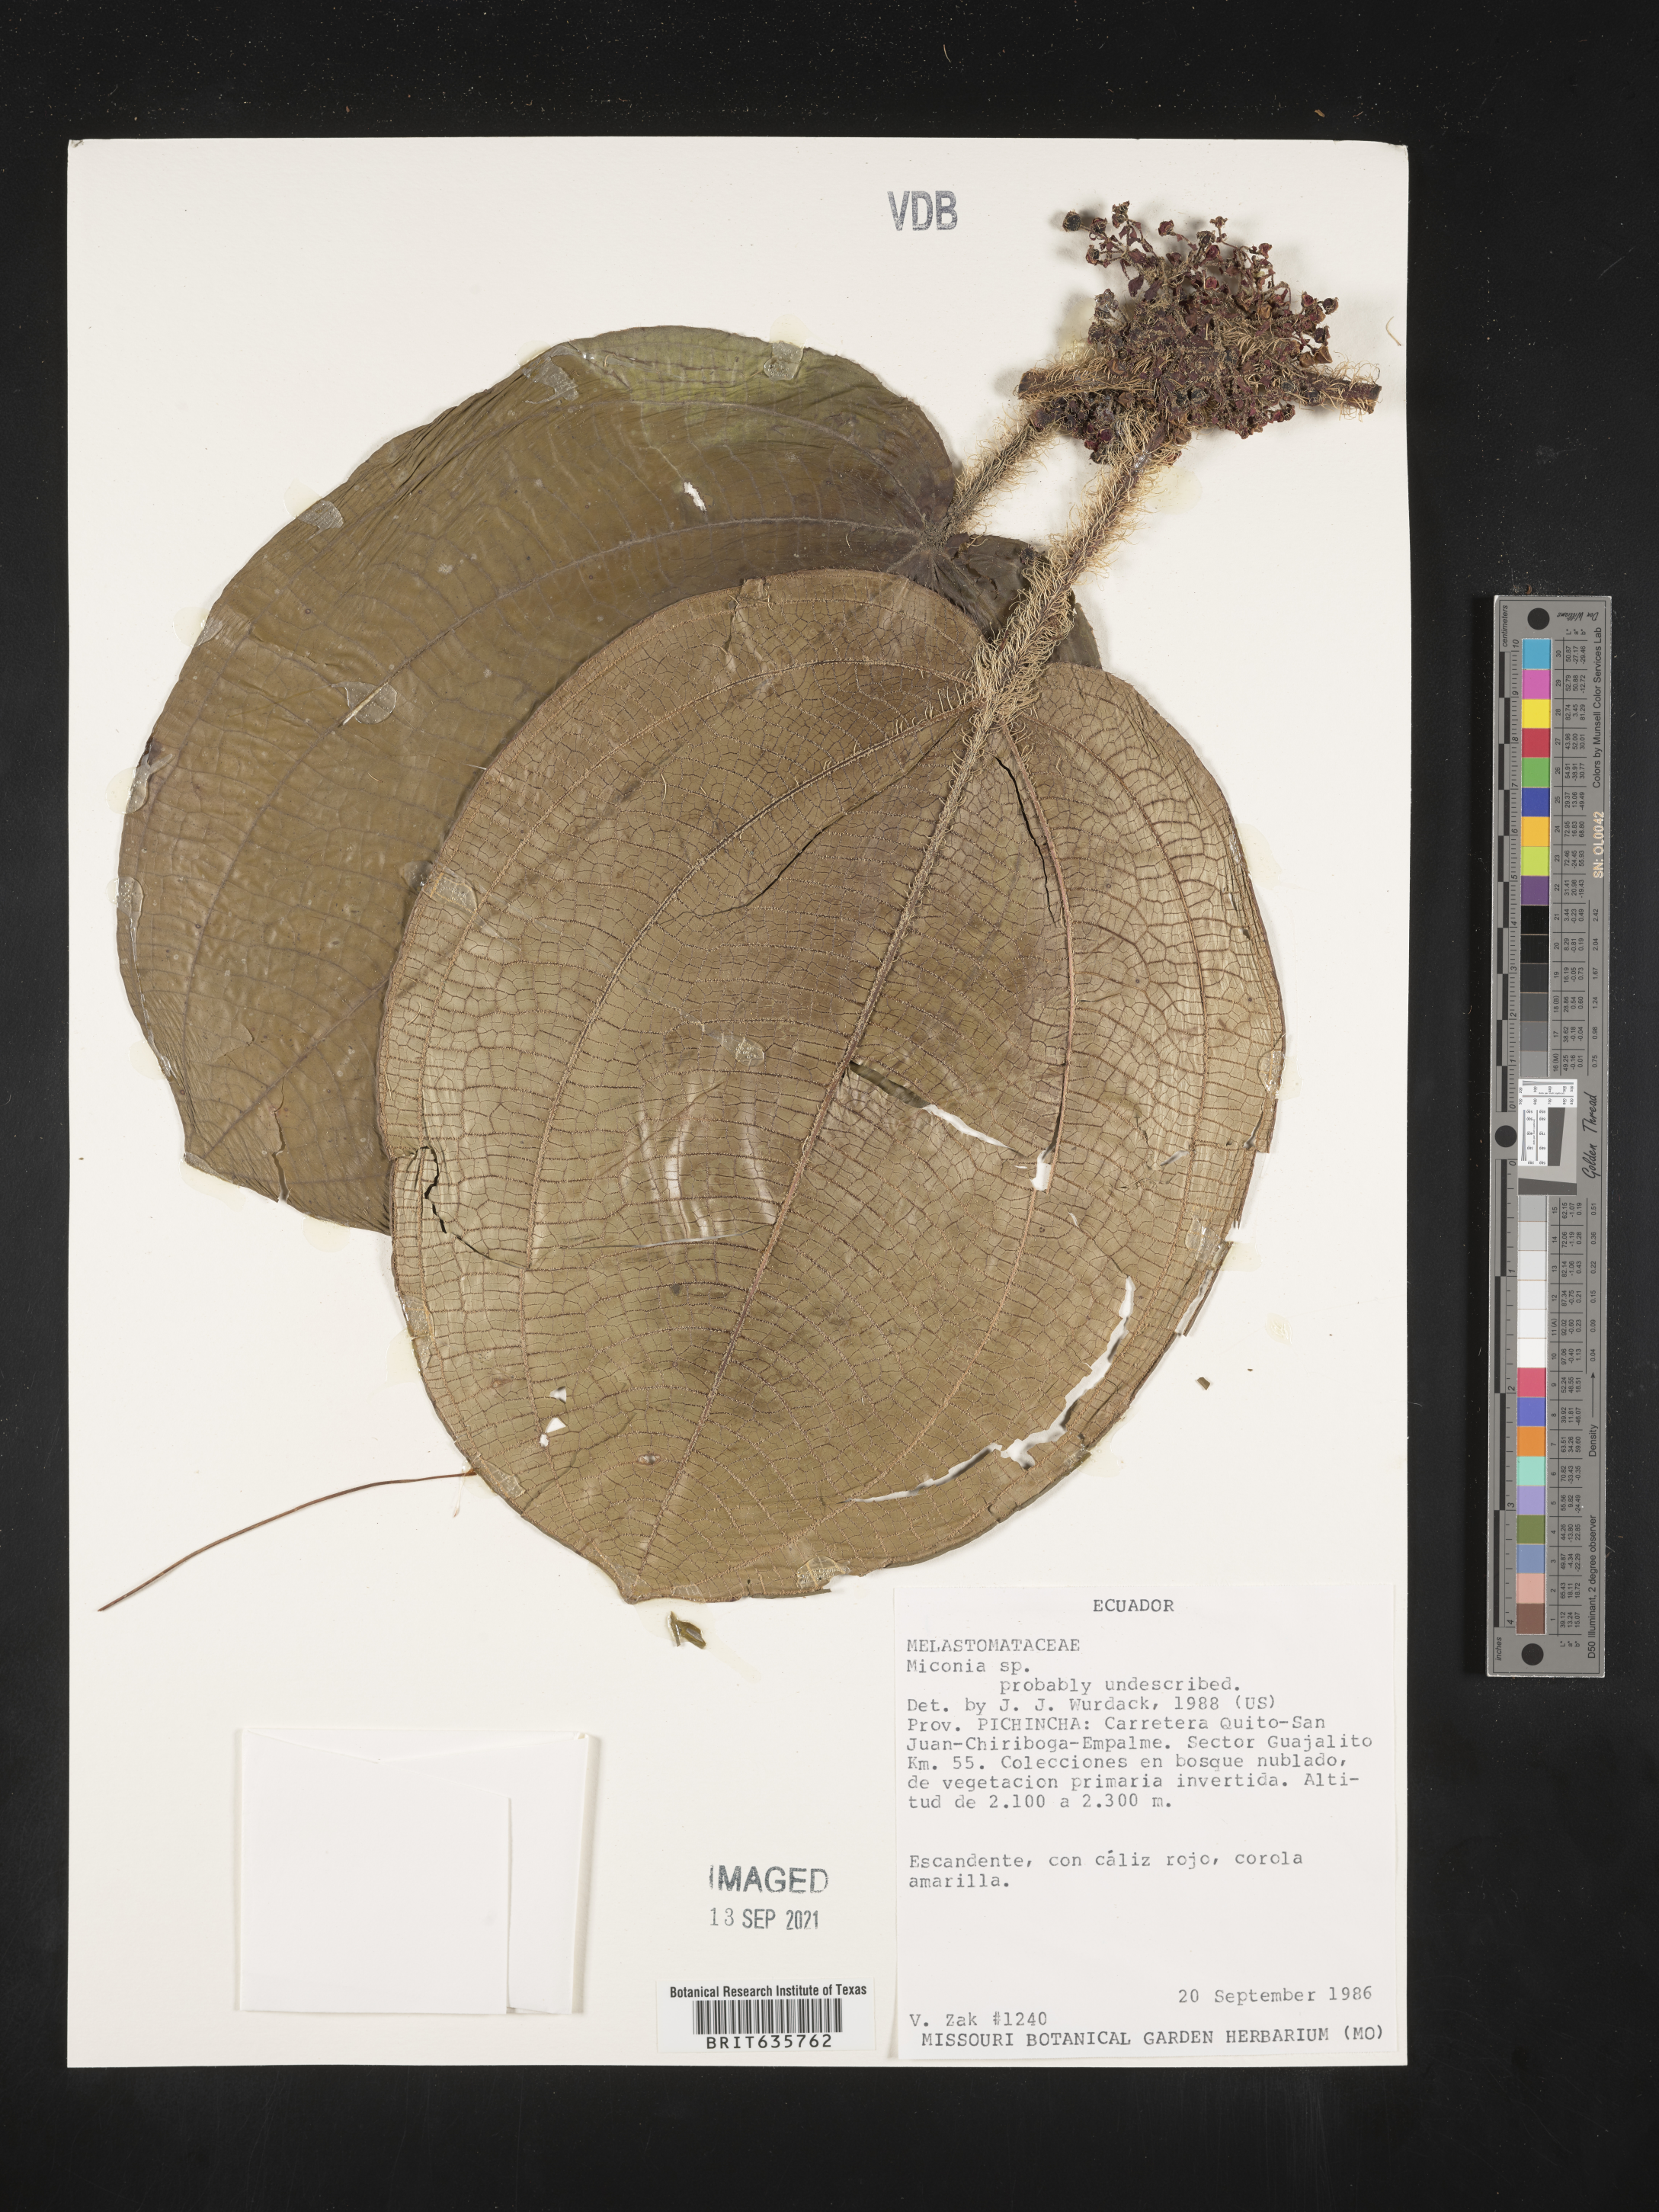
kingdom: Plantae
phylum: Tracheophyta
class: Magnoliopsida
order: Myrtales
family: Melastomataceae
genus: Miconia
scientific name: Miconia
